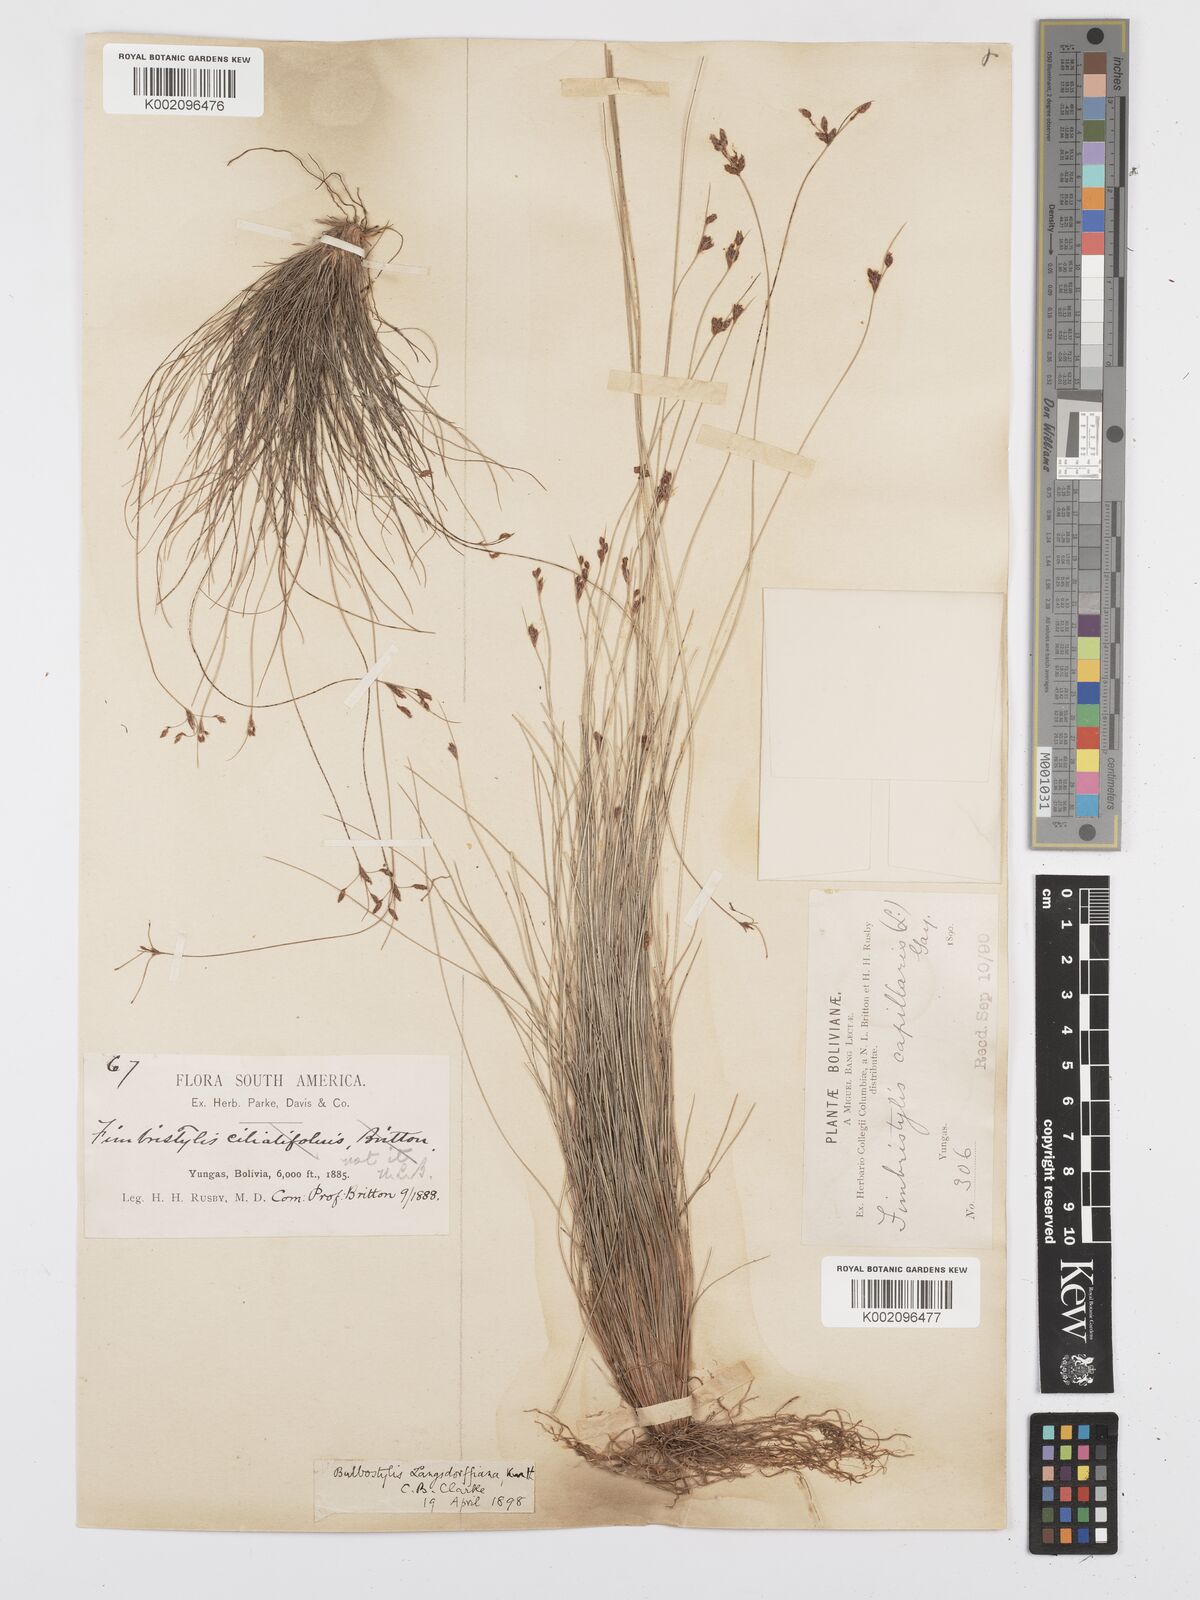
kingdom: Plantae
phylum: Tracheophyta
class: Liliopsida
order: Poales
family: Cyperaceae
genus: Bulbostylis
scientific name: Bulbostylis juncoides
